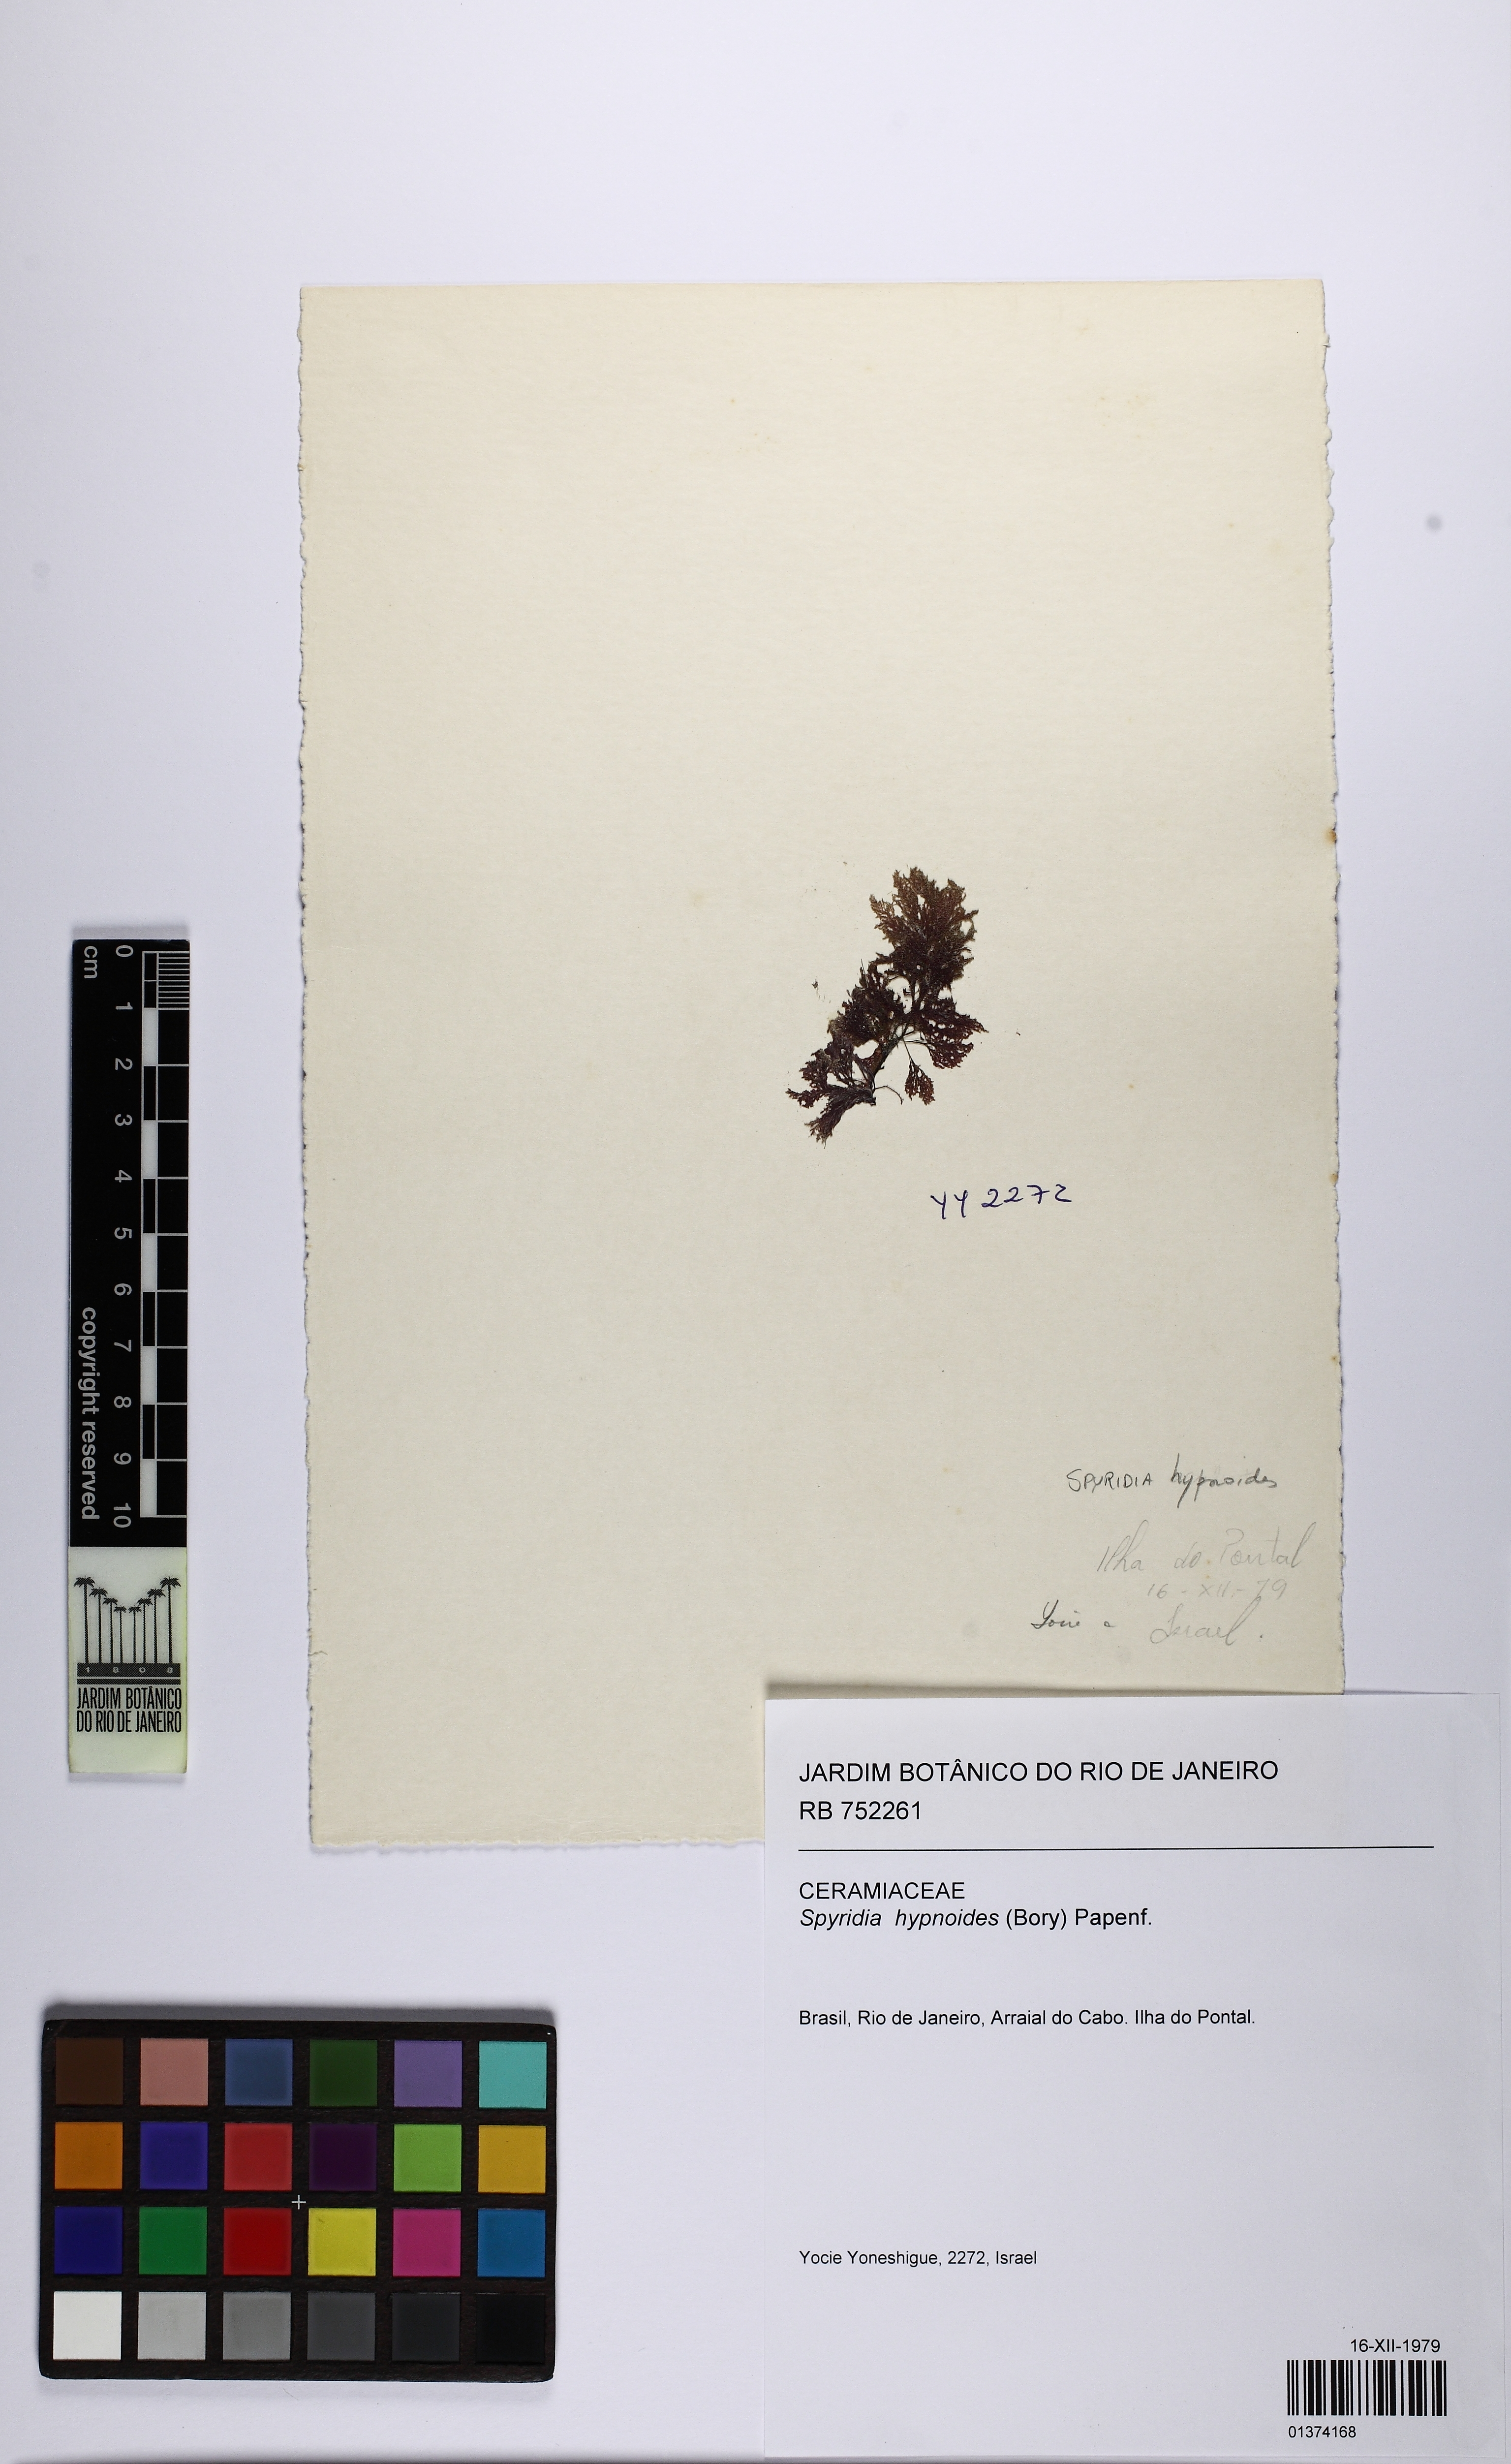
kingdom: Plantae
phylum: Rhodophyta
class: Florideophyceae
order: Ceramiales
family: Spyridiaceae
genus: Spyridia
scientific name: Spyridia hypnoides
